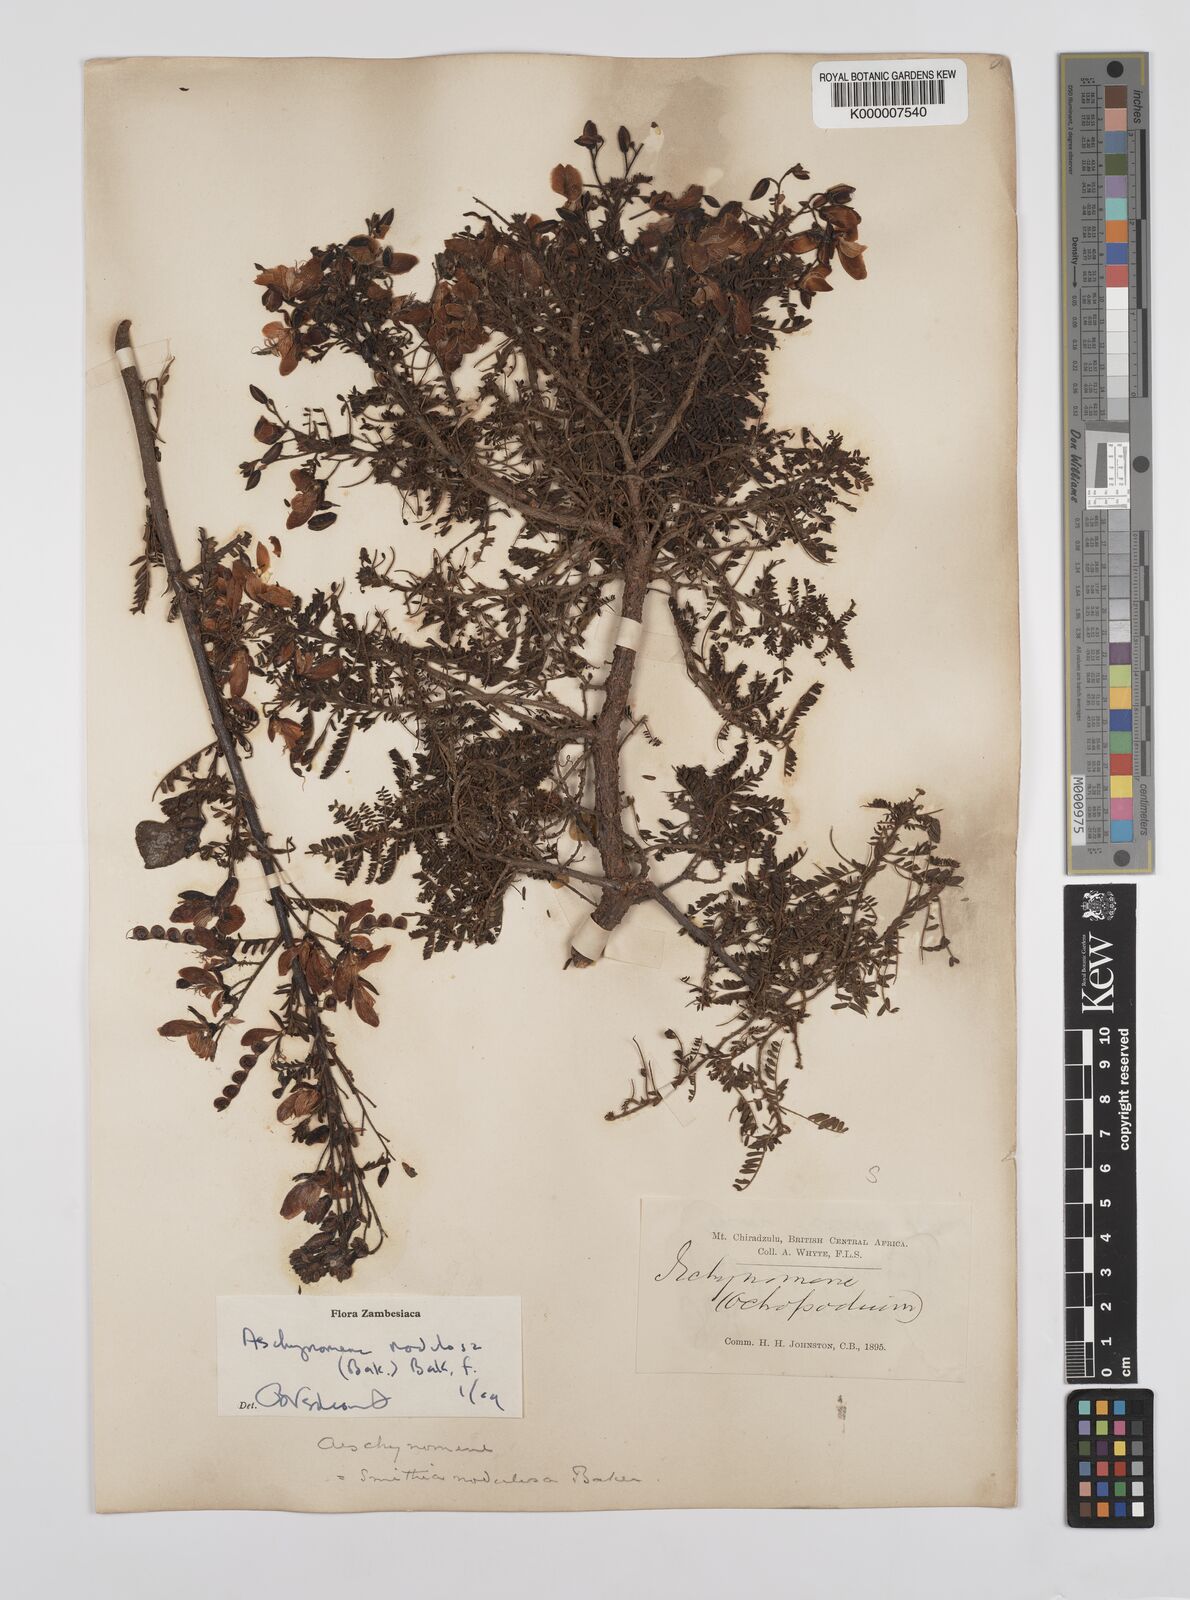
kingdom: Plantae
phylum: Tracheophyta
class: Magnoliopsida
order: Fabales
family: Fabaceae
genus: Aeschynomene
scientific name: Aeschynomene nodulosa
